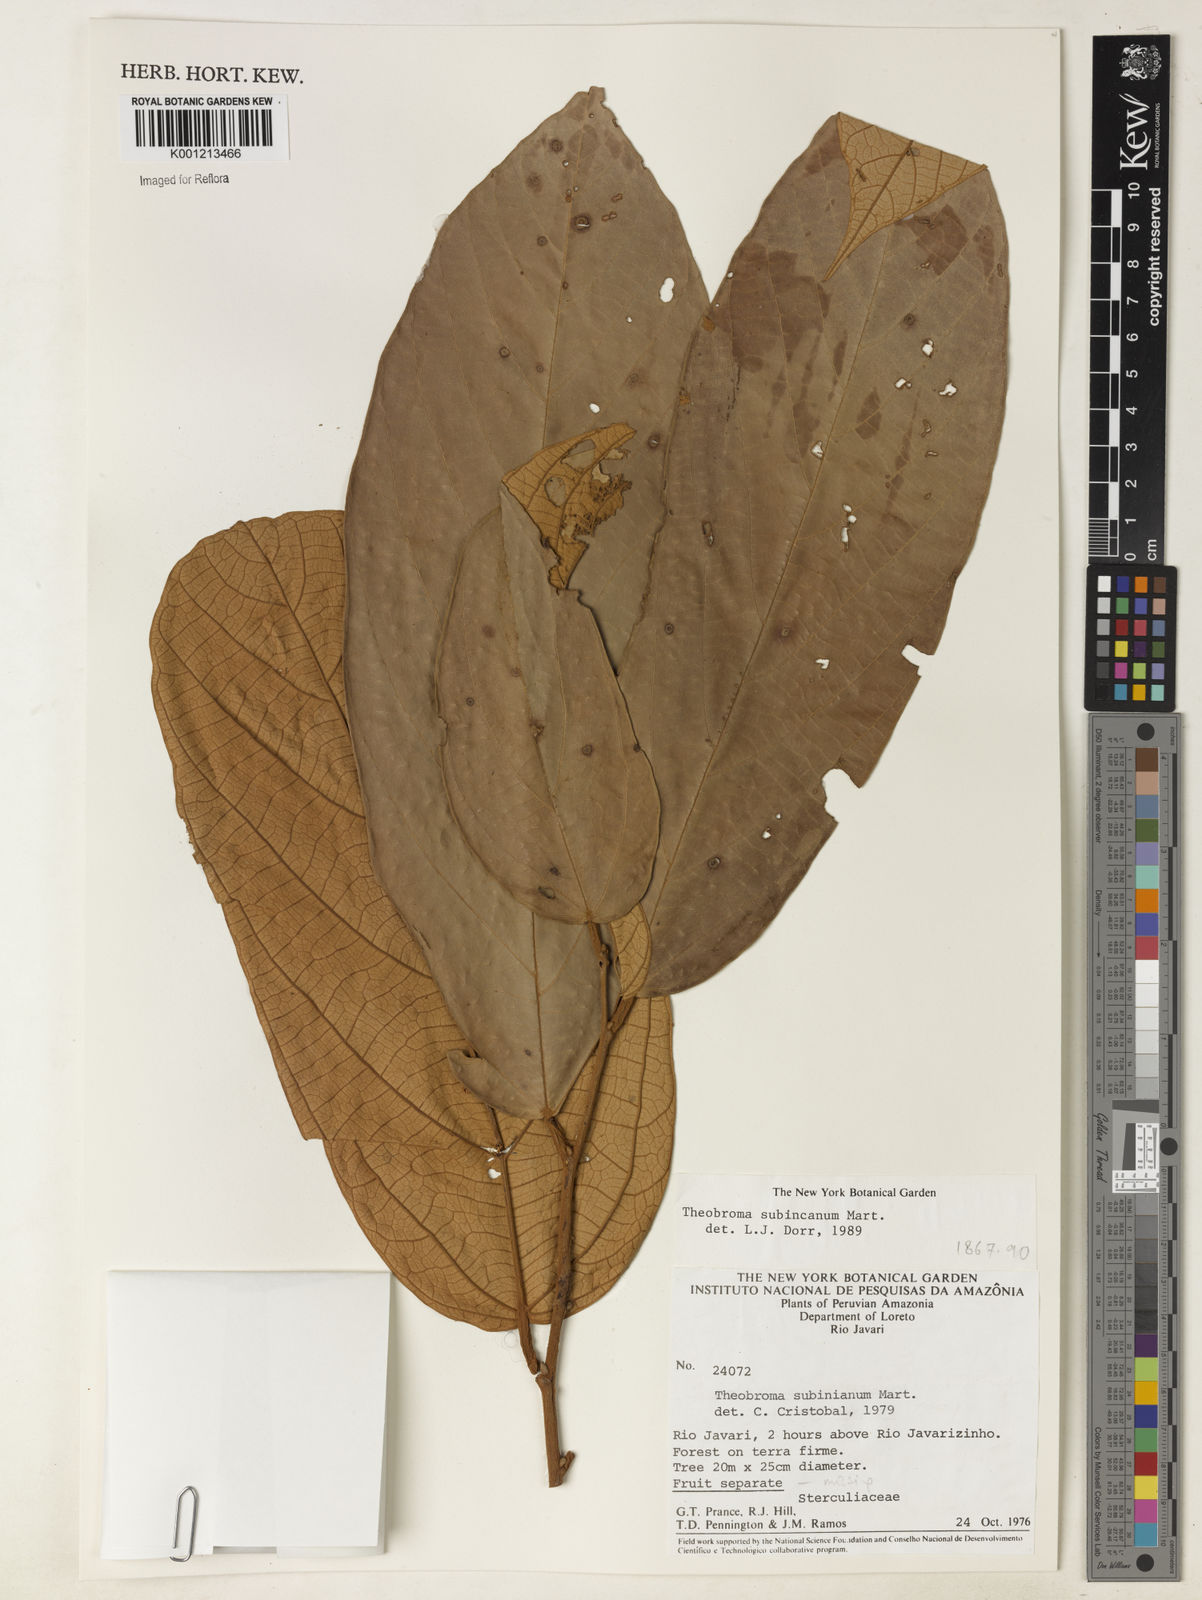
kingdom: Plantae
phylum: Tracheophyta
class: Magnoliopsida
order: Malvales
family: Malvaceae
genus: Theobroma
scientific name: Theobroma subincanum
